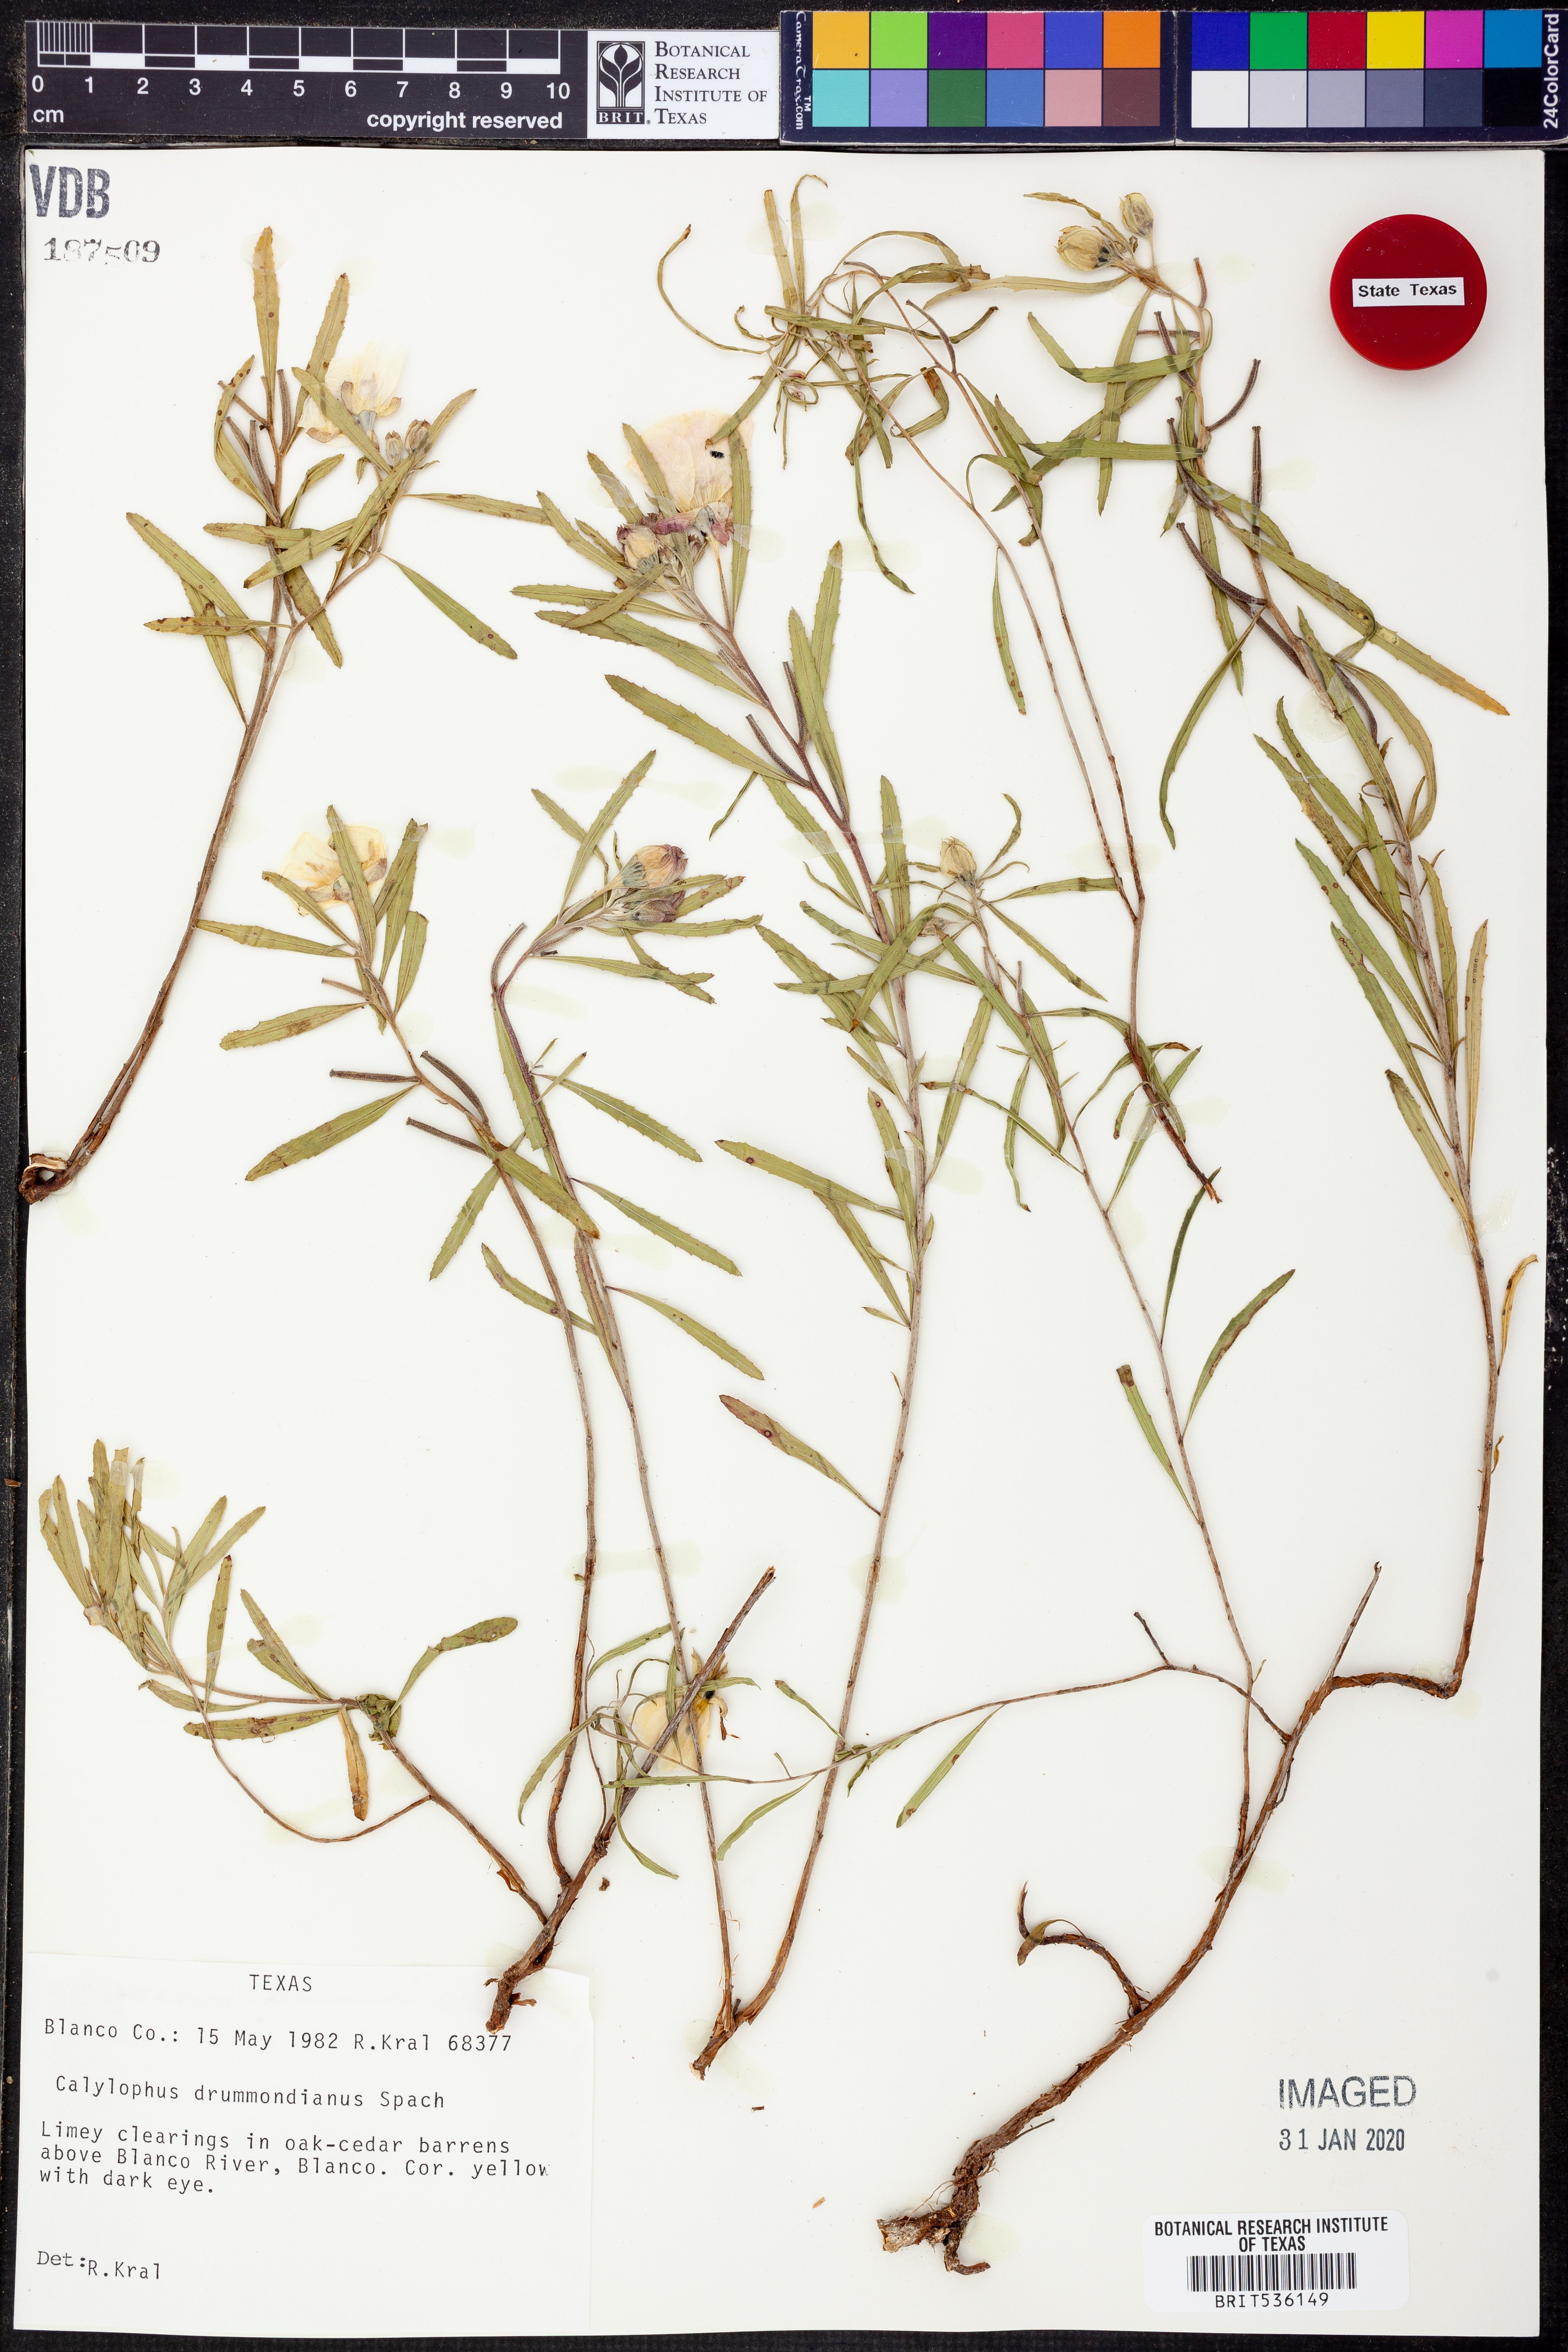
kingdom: Plantae
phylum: Tracheophyta
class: Magnoliopsida
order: Myrtales
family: Onagraceae
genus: Oenothera
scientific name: Oenothera serrulata
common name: Half-shrub calylophus
